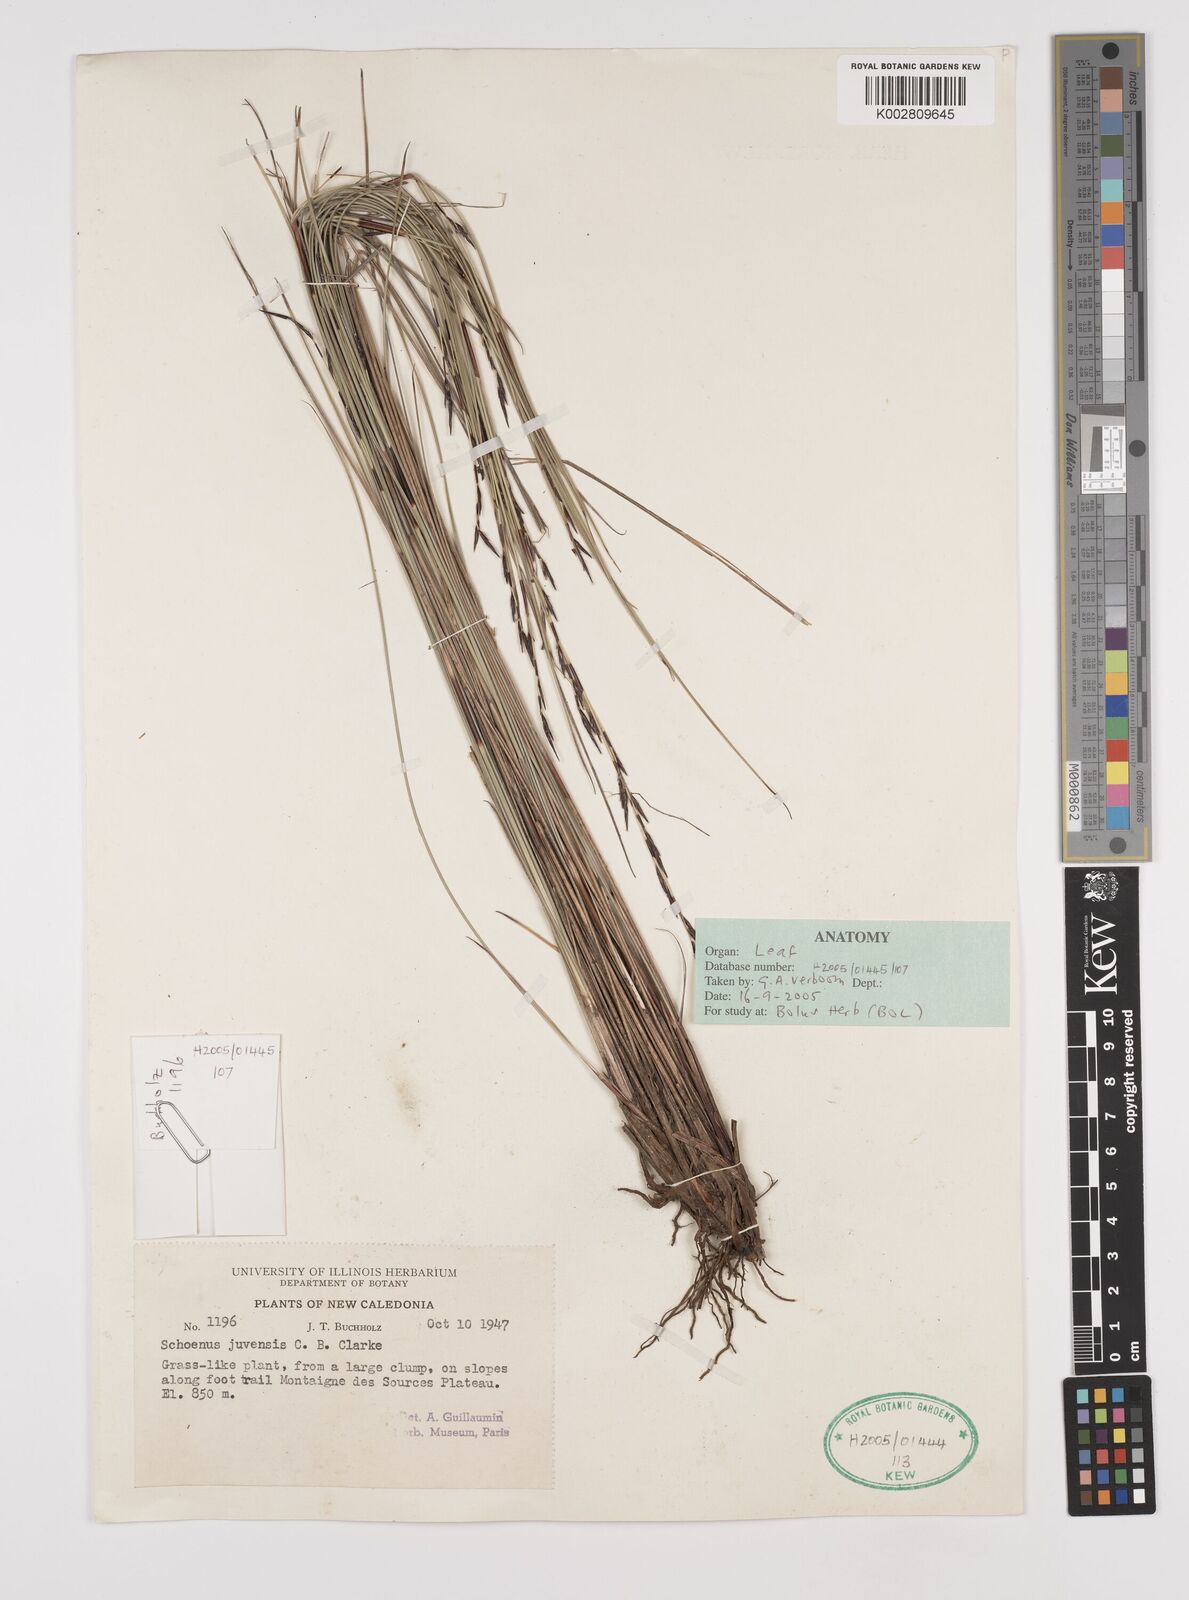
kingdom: Plantae
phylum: Tracheophyta
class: Liliopsida
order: Poales
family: Cyperaceae
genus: Schoenus
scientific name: Schoenus neocaledonicus
